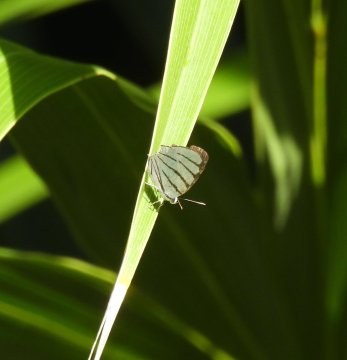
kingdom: Animalia
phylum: Arthropoda
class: Insecta
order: Lepidoptera
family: Lycaenidae
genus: Arawacus
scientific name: Arawacus sito
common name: Fine-lined Hairstreak
